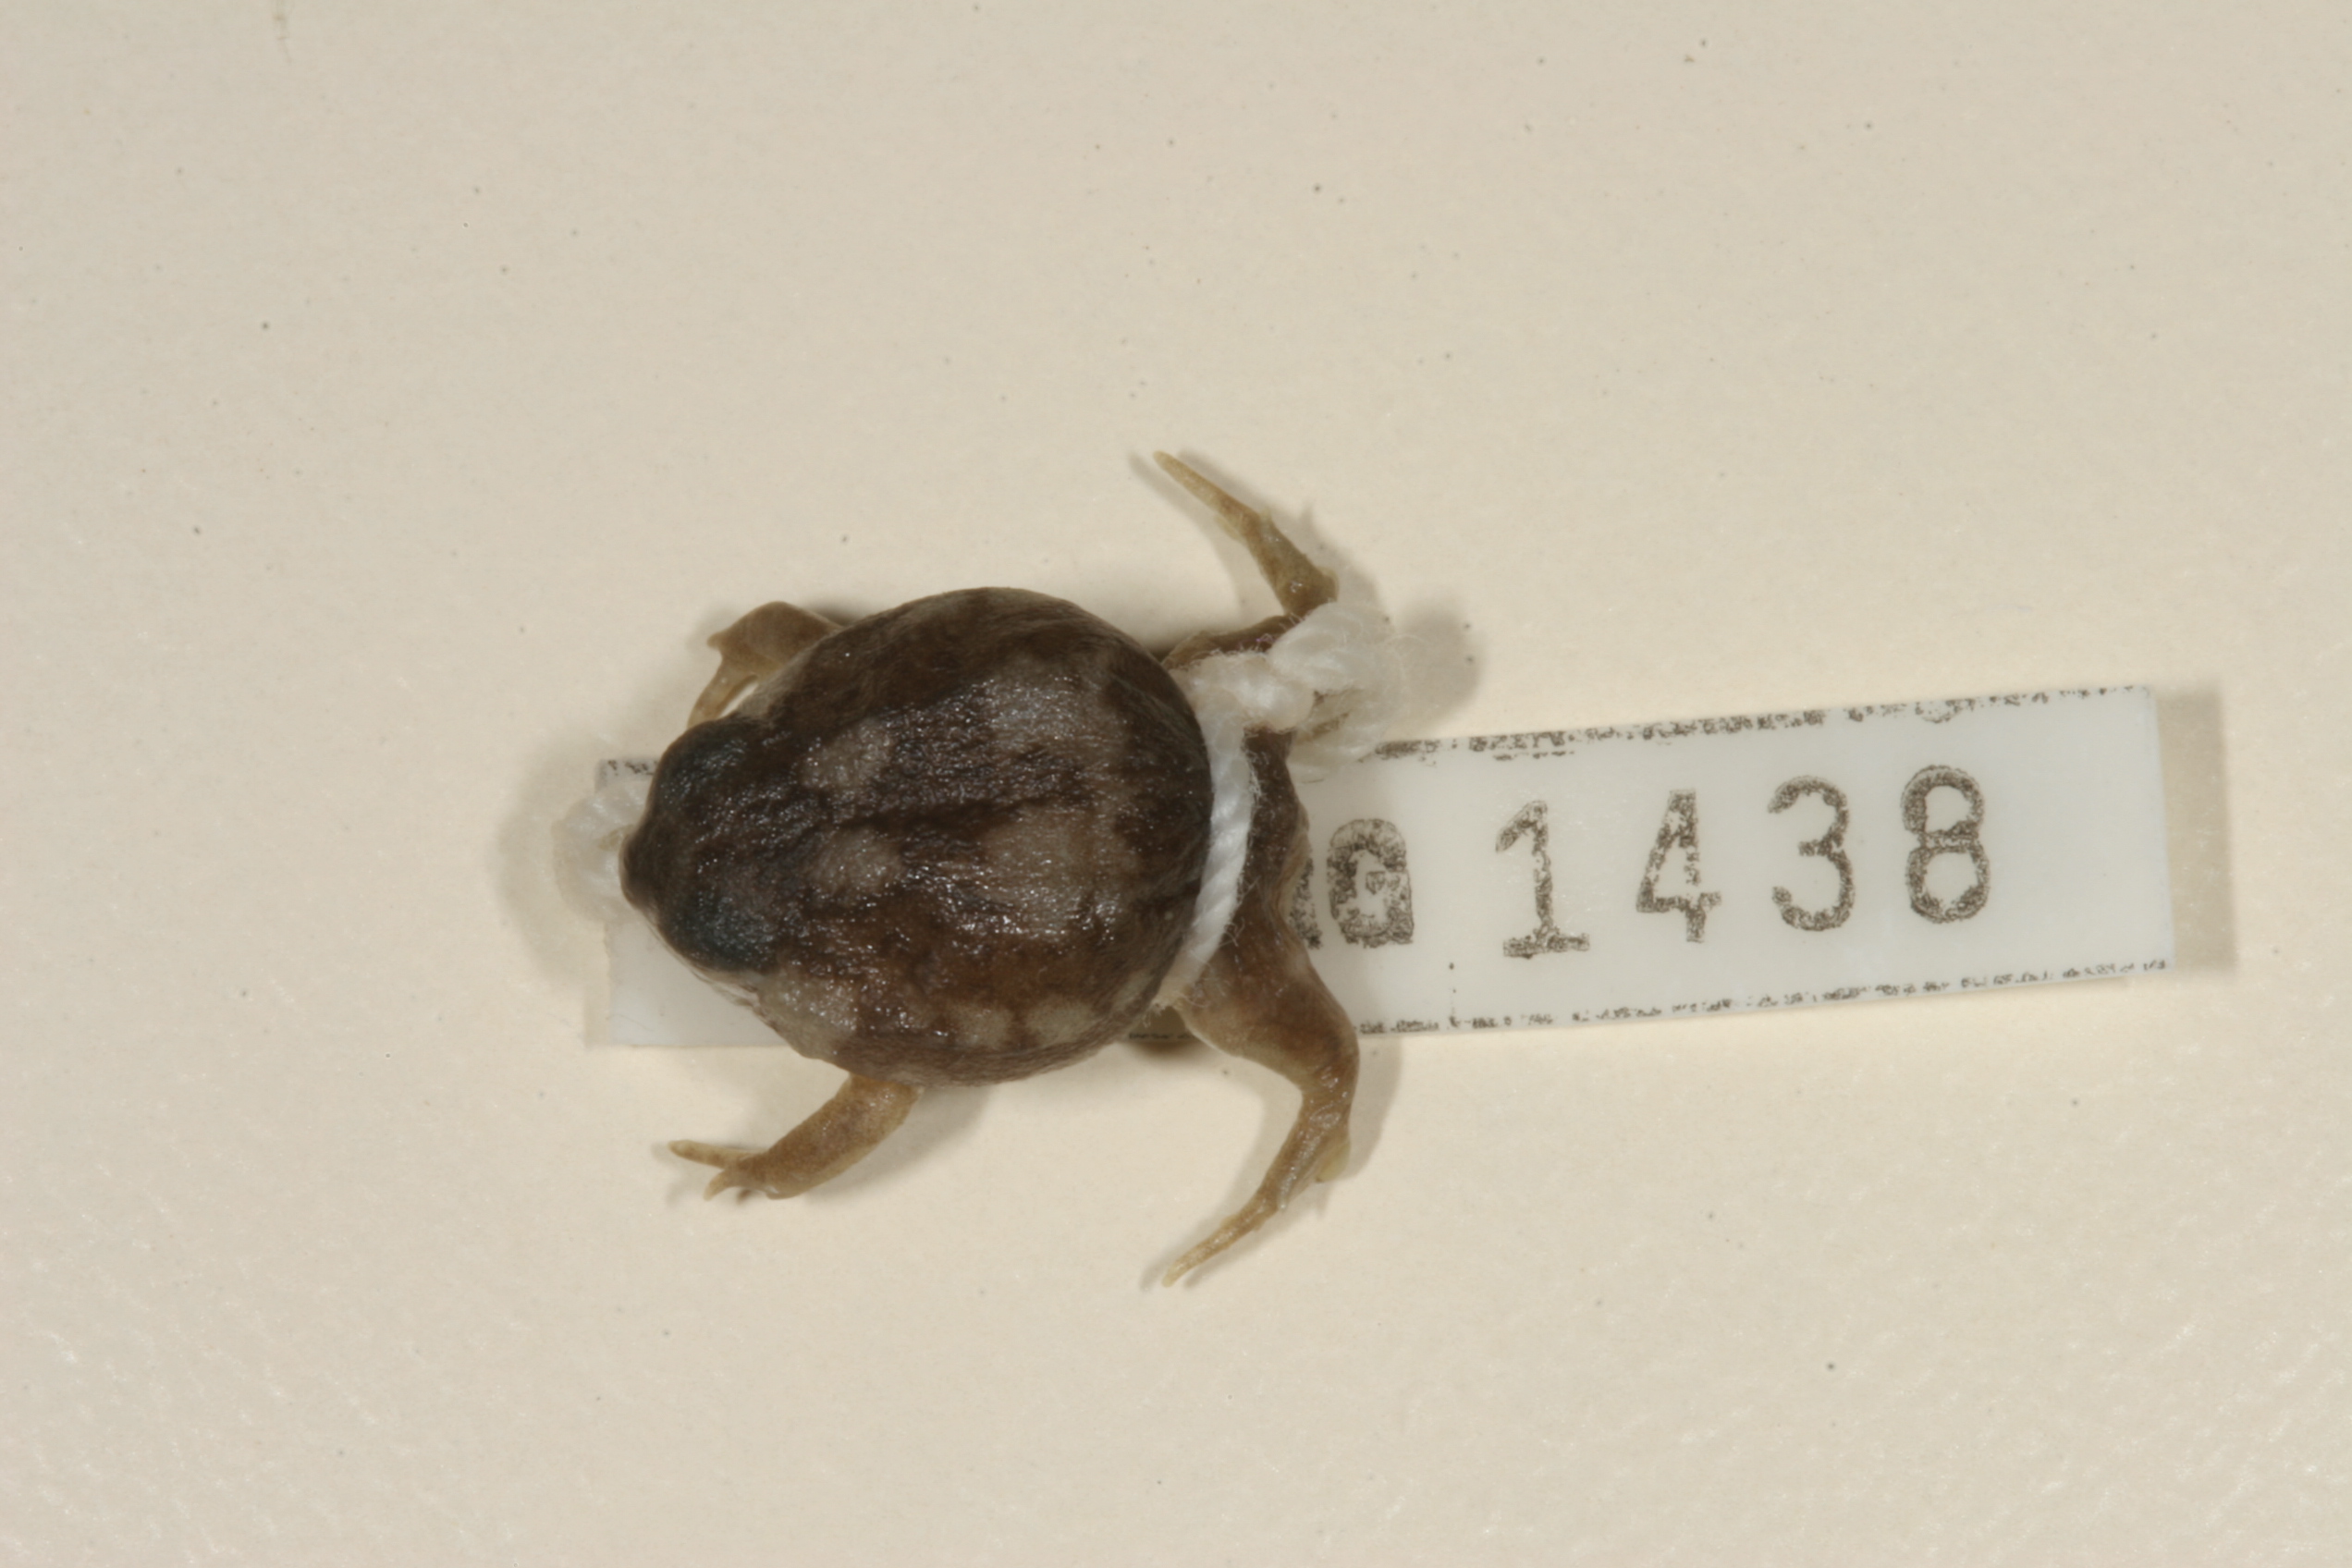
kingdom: Animalia
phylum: Chordata
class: Amphibia
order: Anura
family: Brevicipitidae
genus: Breviceps
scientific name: Breviceps adspersus
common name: Common rain frog
